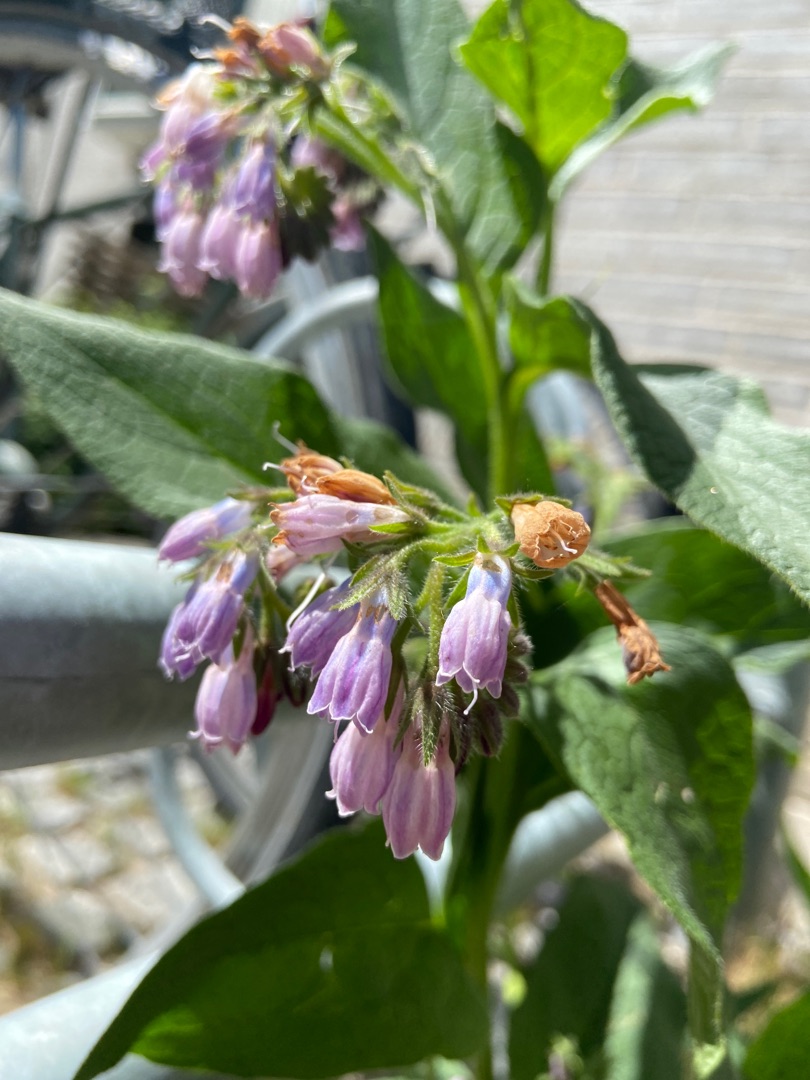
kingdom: Plantae
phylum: Tracheophyta
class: Magnoliopsida
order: Boraginales
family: Boraginaceae
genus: Symphytum
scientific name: Symphytum uplandicum
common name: Foder-kulsukker
